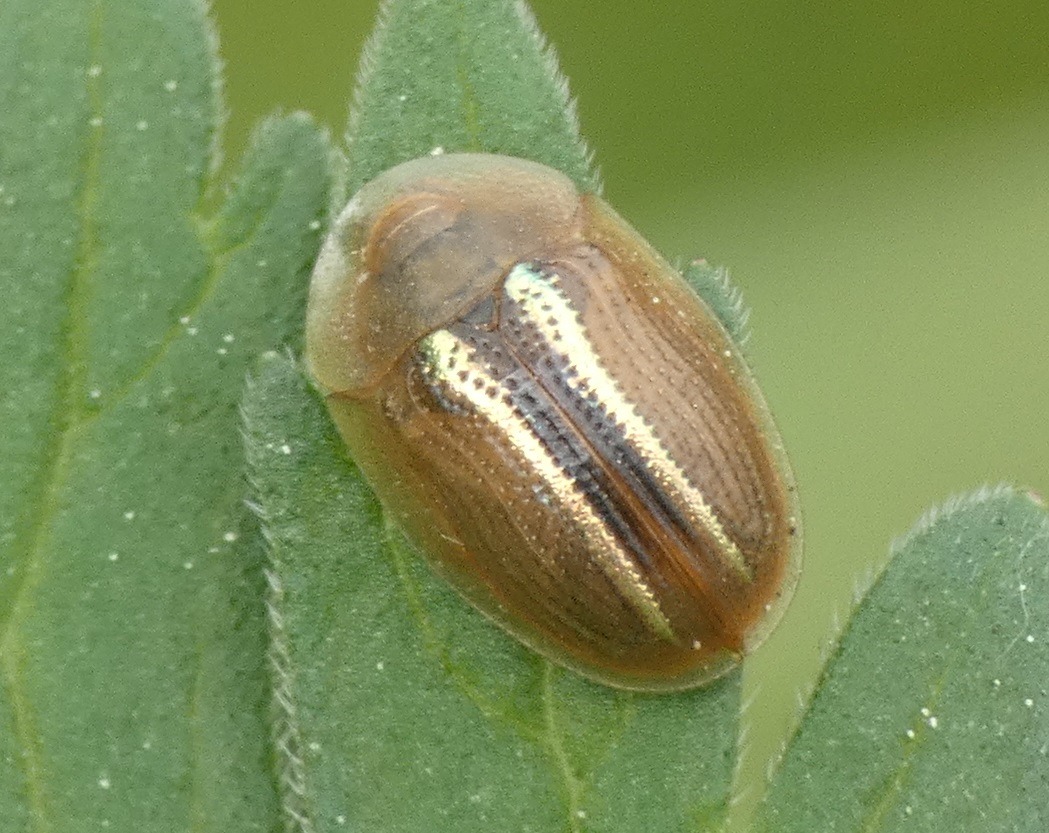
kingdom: Animalia
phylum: Arthropoda
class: Insecta
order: Coleoptera
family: Chrysomelidae
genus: Cassida
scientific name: Cassida nobilis
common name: Sølvstribet skjoldbille
